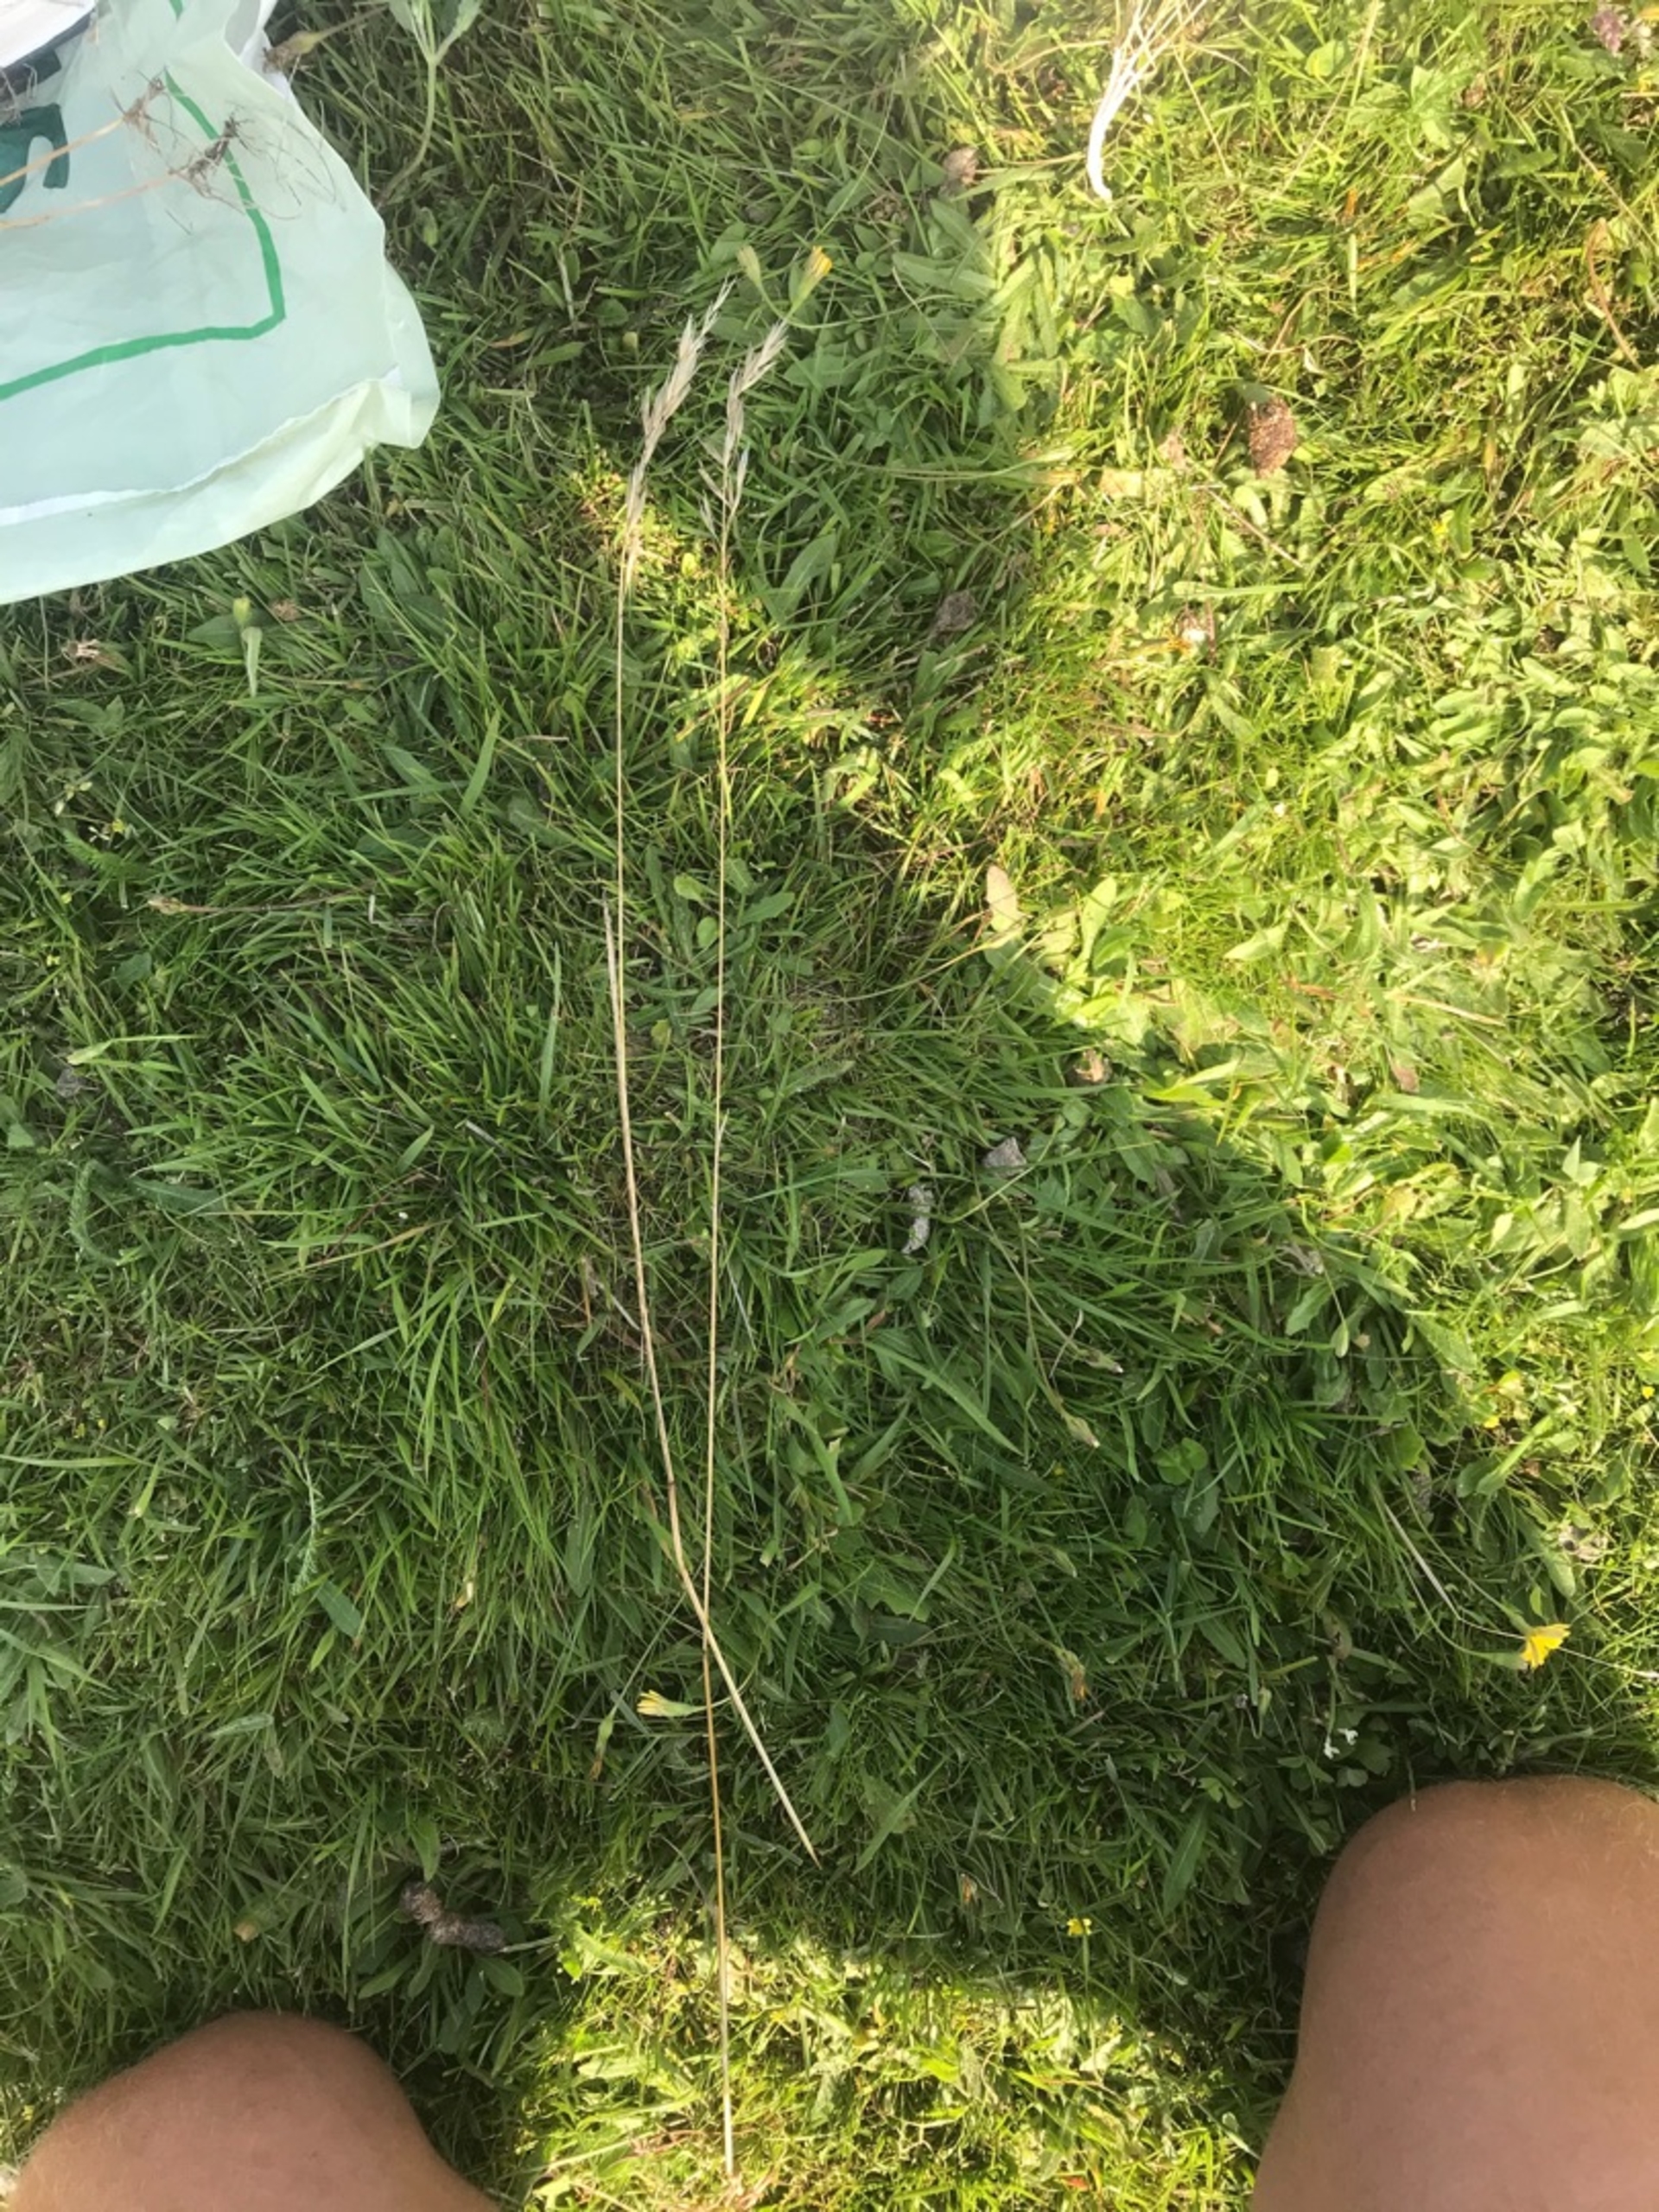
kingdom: Plantae
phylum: Tracheophyta
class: Liliopsida
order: Poales
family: Poaceae
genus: Avenula
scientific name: Avenula pubescens
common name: Dunet havre
